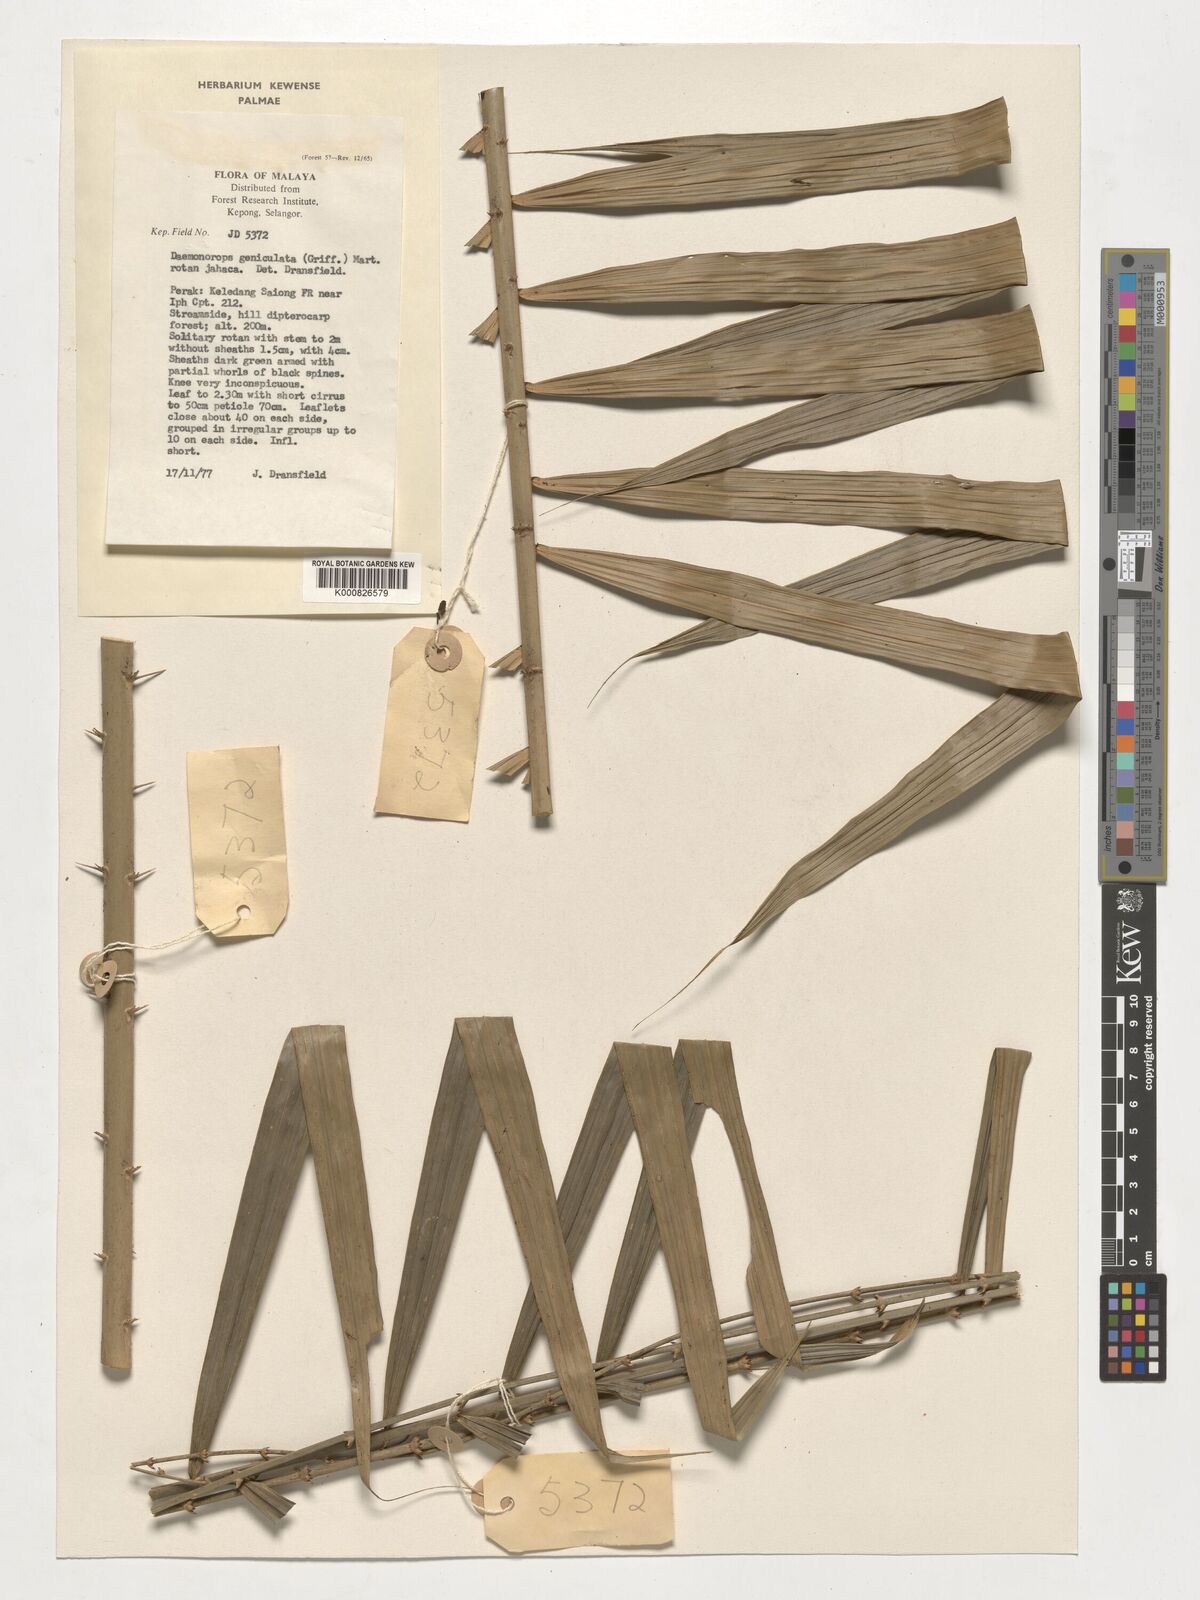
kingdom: Plantae
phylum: Tracheophyta
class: Liliopsida
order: Arecales
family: Arecaceae
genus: Calamus
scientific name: Calamus geniculatus
